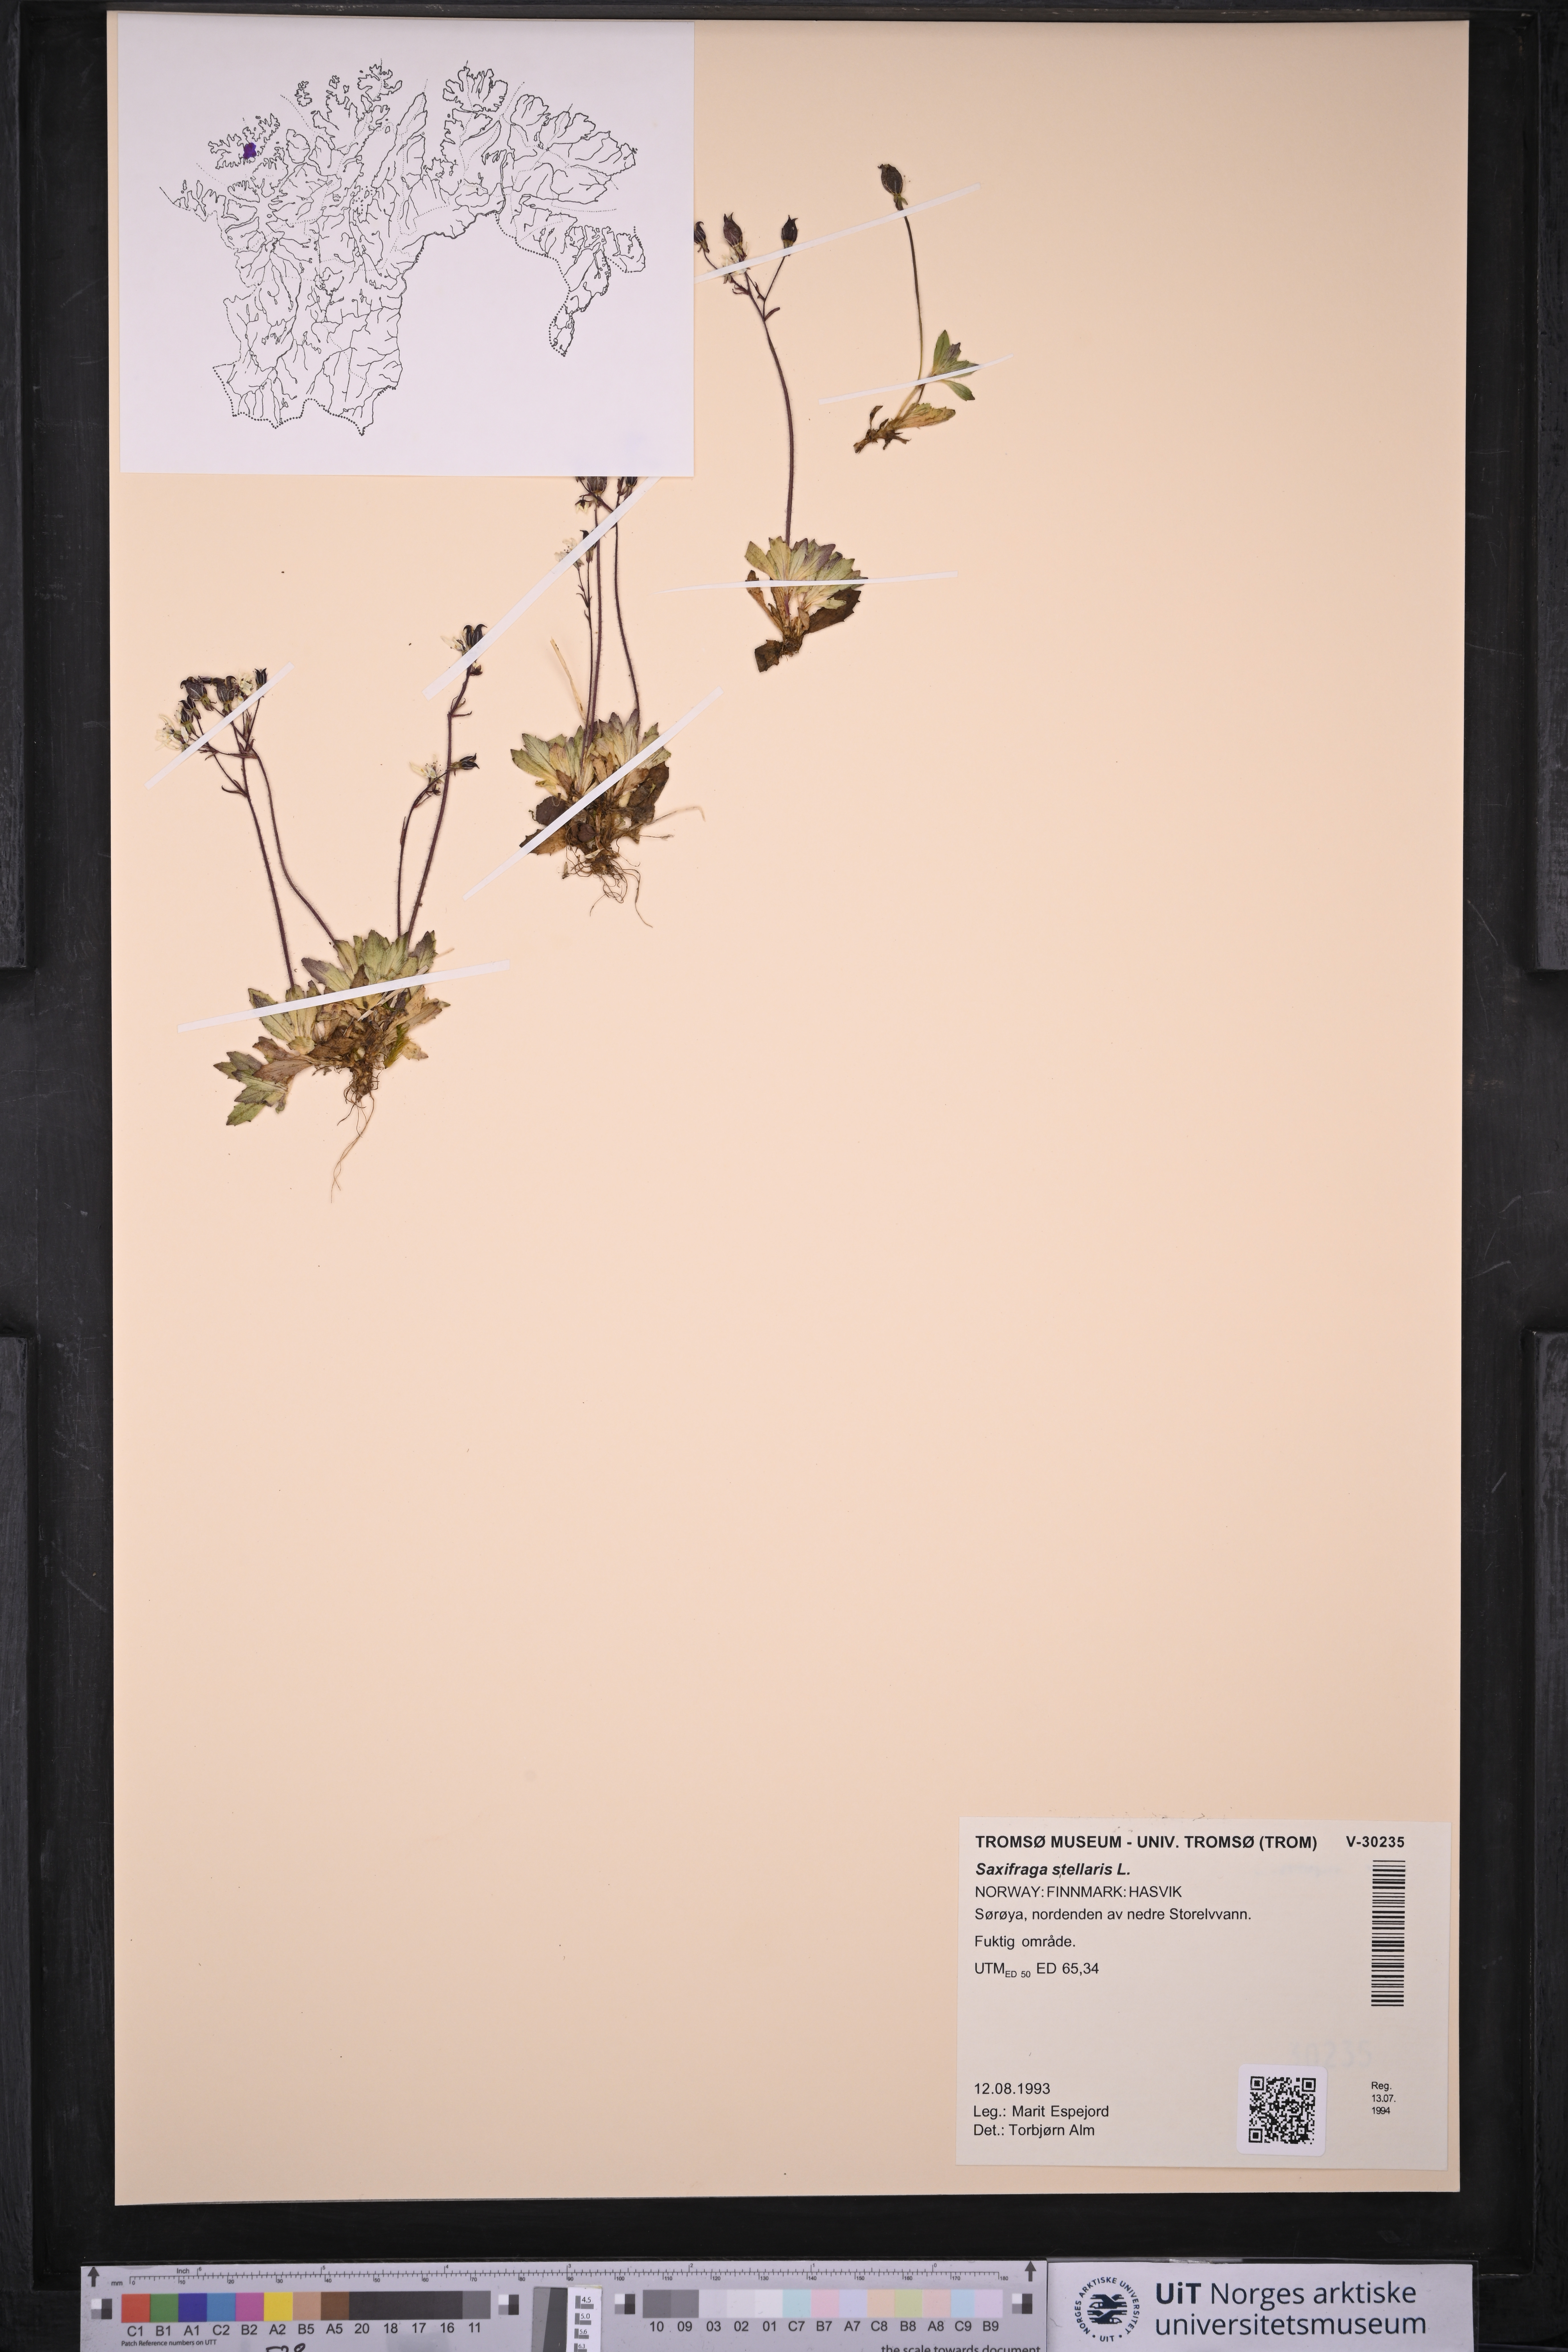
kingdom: Plantae
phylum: Tracheophyta
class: Magnoliopsida
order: Saxifragales
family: Saxifragaceae
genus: Micranthes
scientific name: Micranthes stellaris
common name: Starry saxifrage
